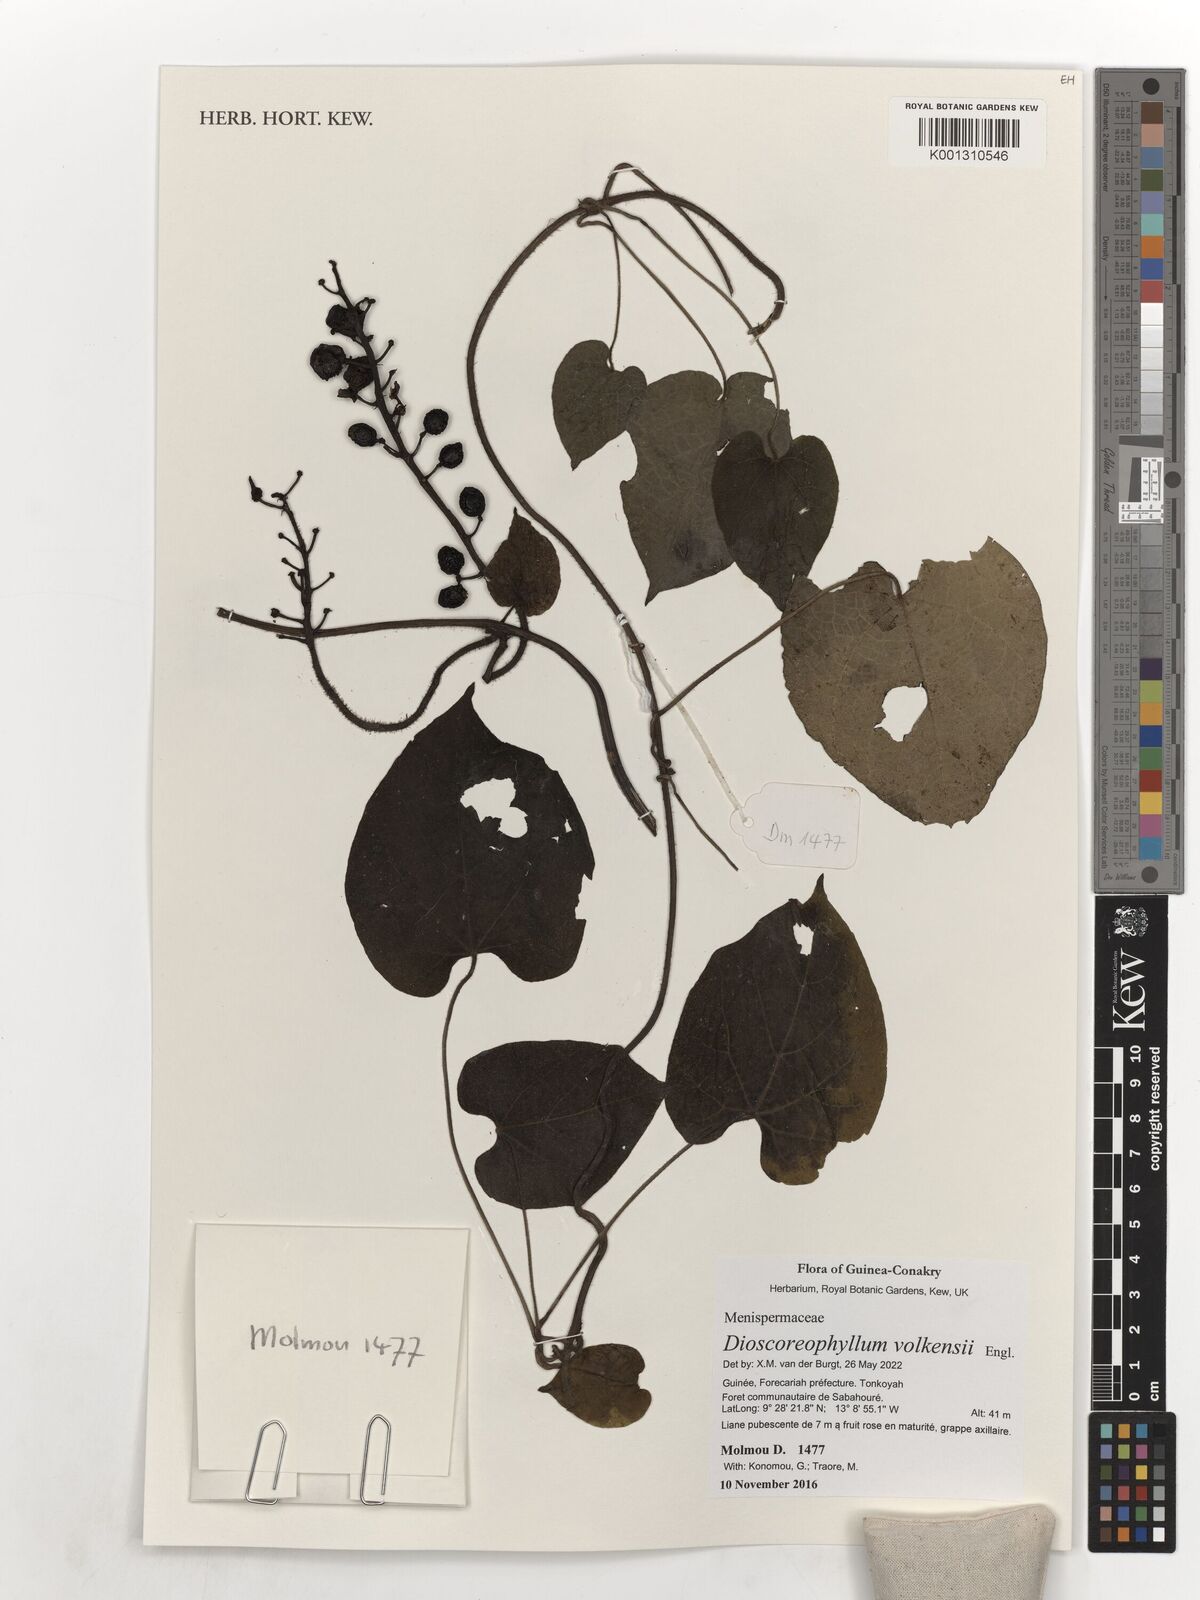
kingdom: Plantae
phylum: Tracheophyta
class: Magnoliopsida
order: Ranunculales
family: Menispermaceae
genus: Dioscoreophyllum
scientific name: Dioscoreophyllum volkensii
